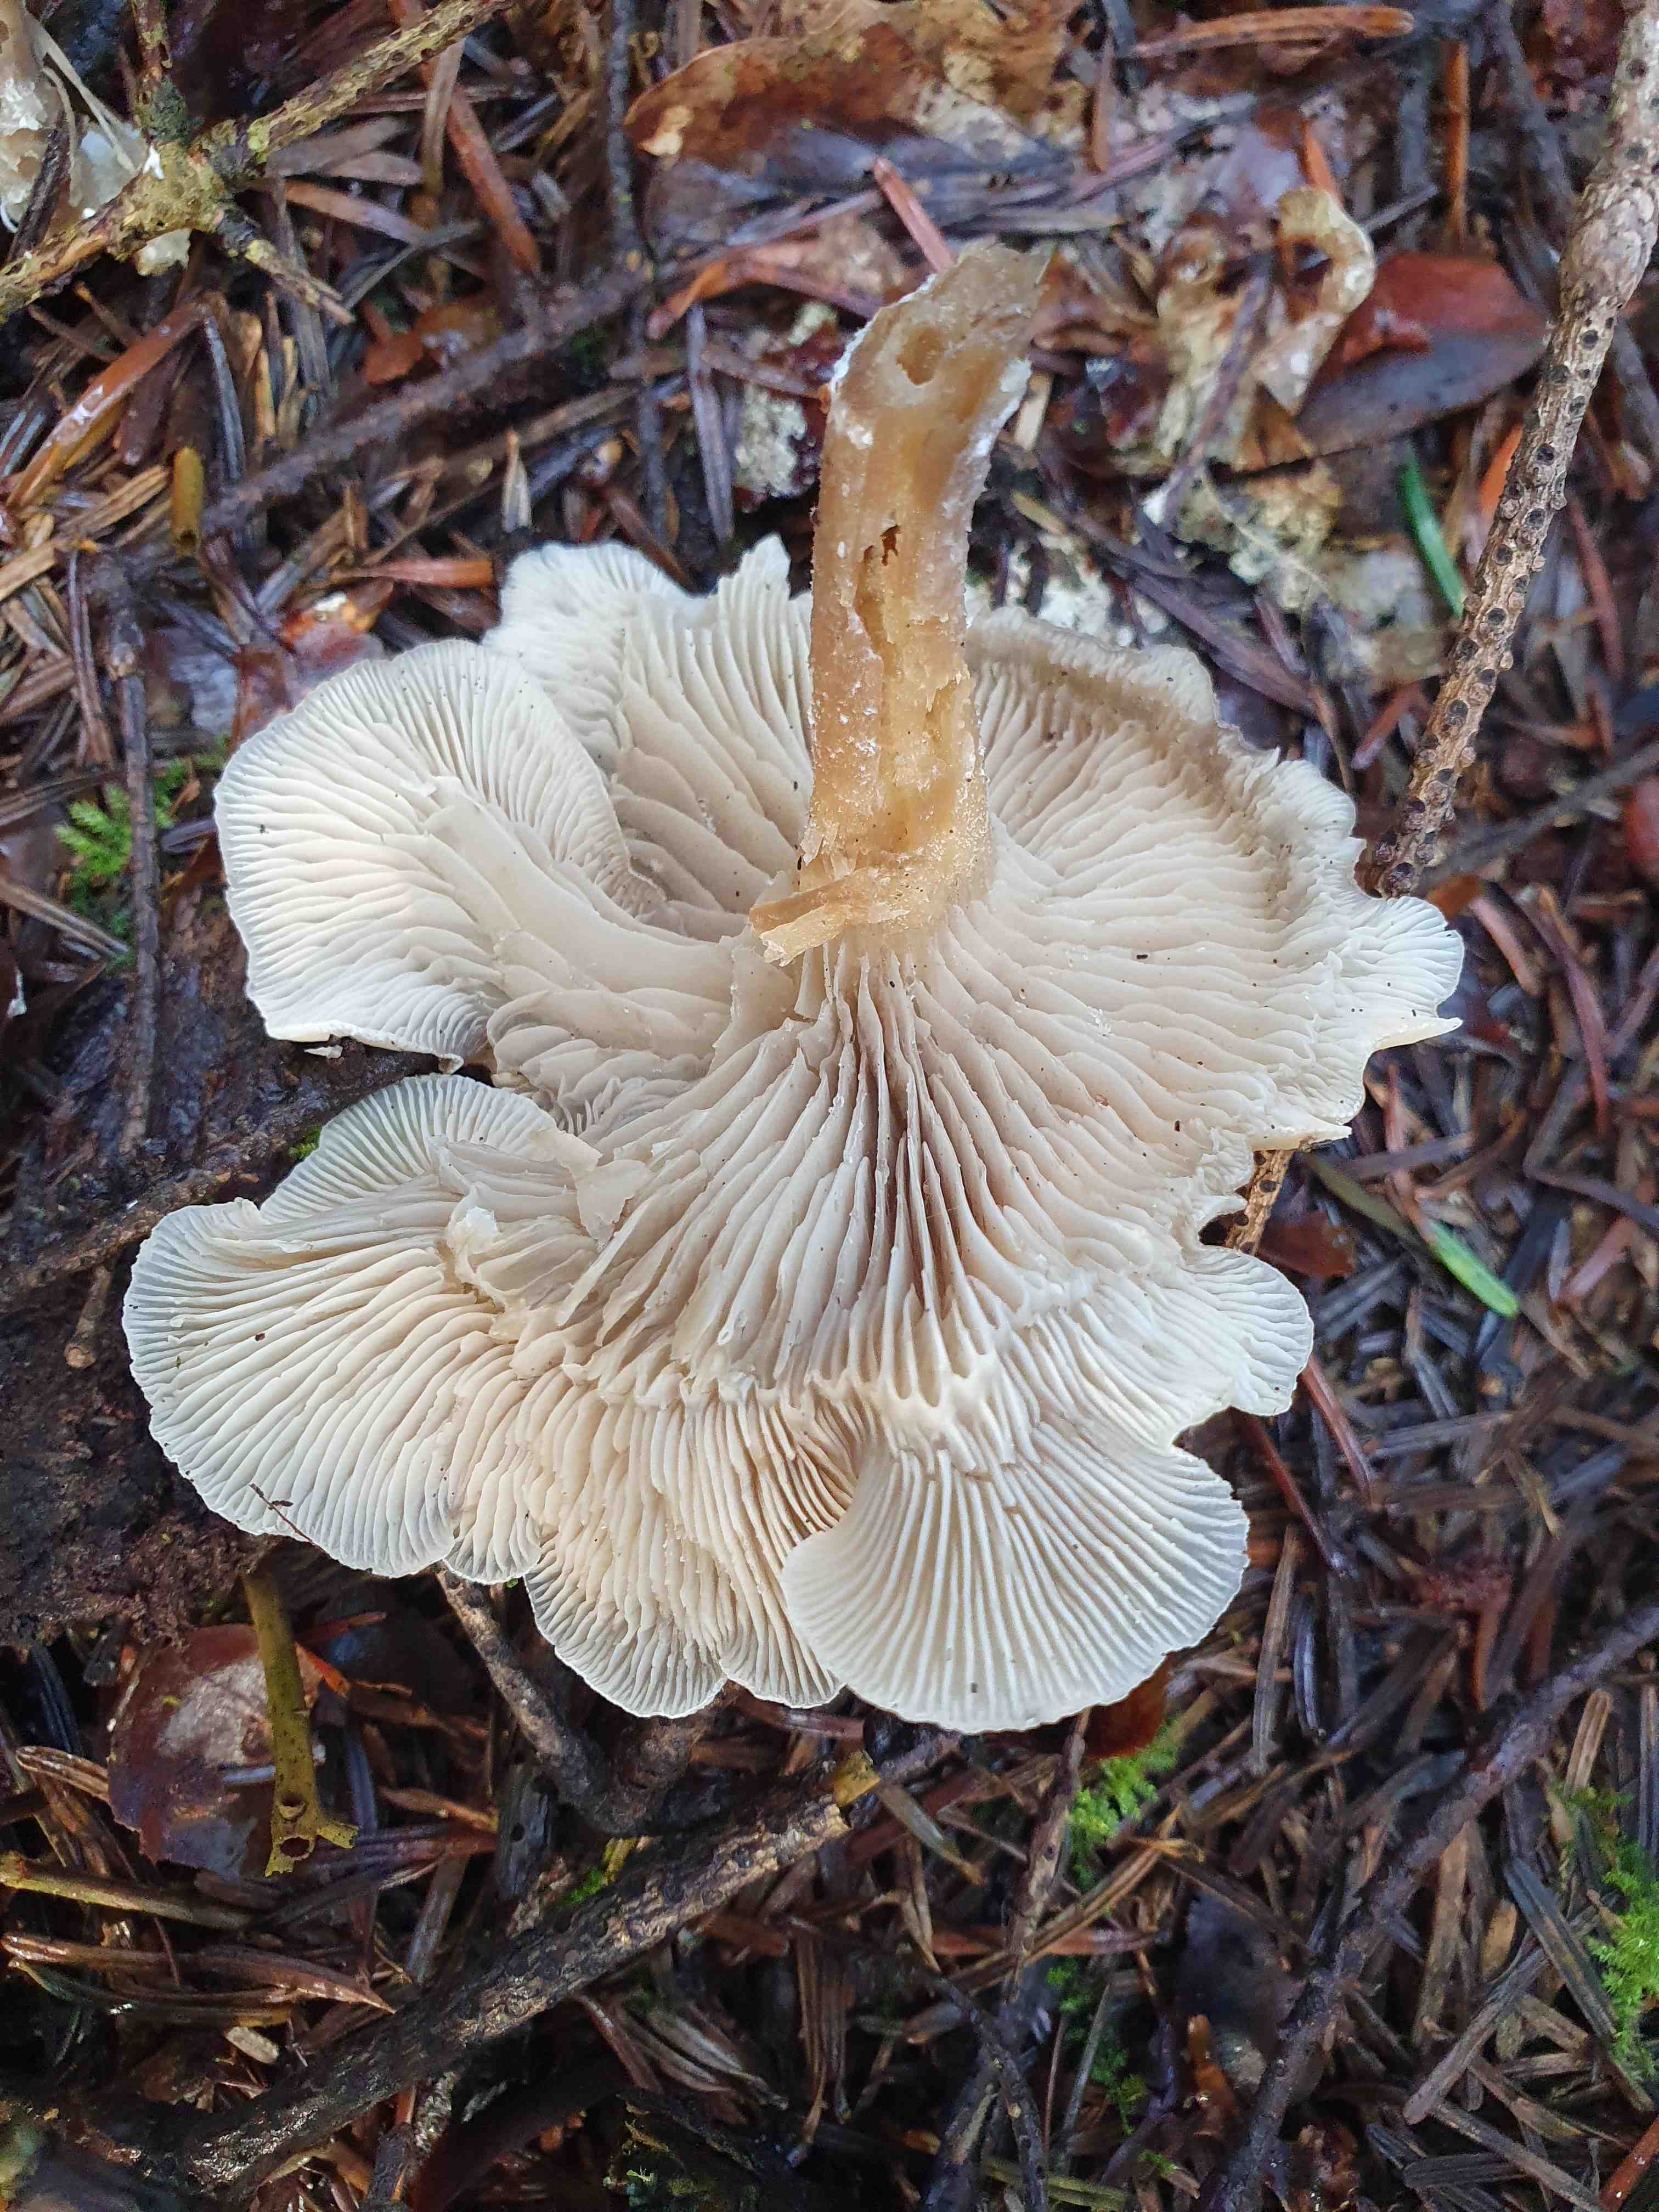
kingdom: Fungi
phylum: Basidiomycota
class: Agaricomycetes
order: Agaricales
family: Tricholomataceae
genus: Clitocybe
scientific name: Clitocybe
